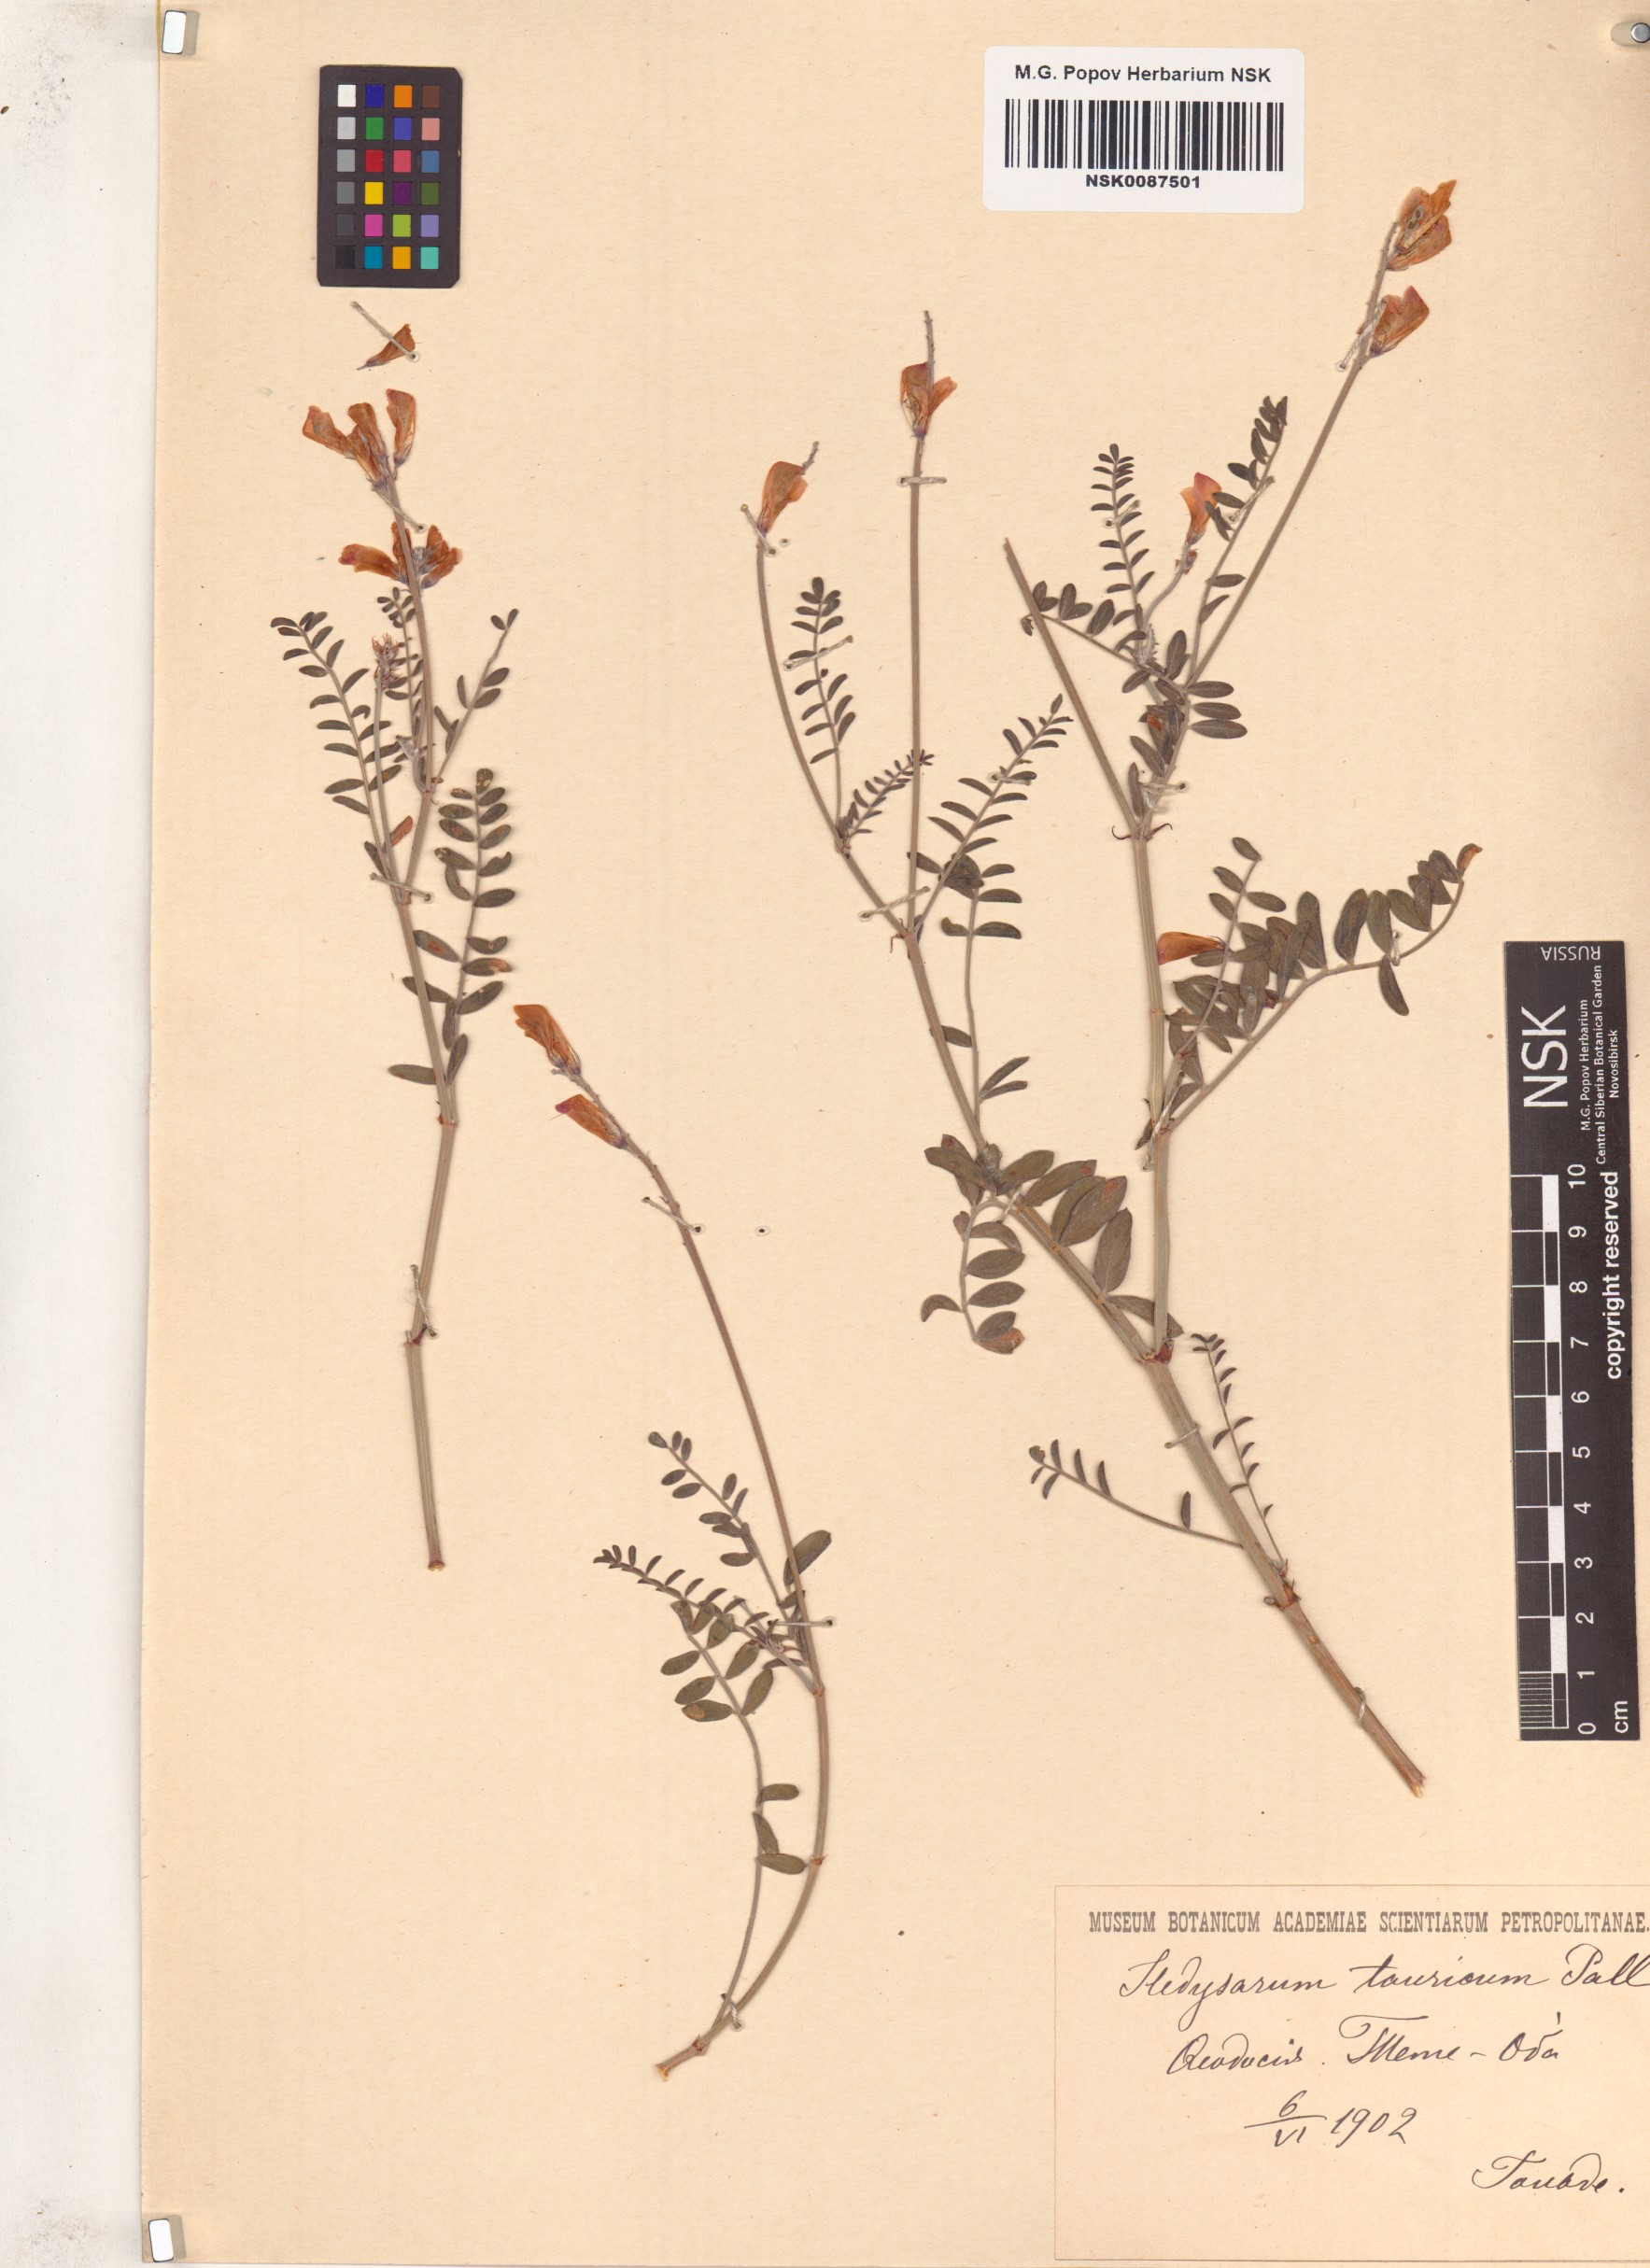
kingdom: Plantae
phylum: Tracheophyta
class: Magnoliopsida
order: Fabales
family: Fabaceae
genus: Hedysarum
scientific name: Hedysarum tauricum
